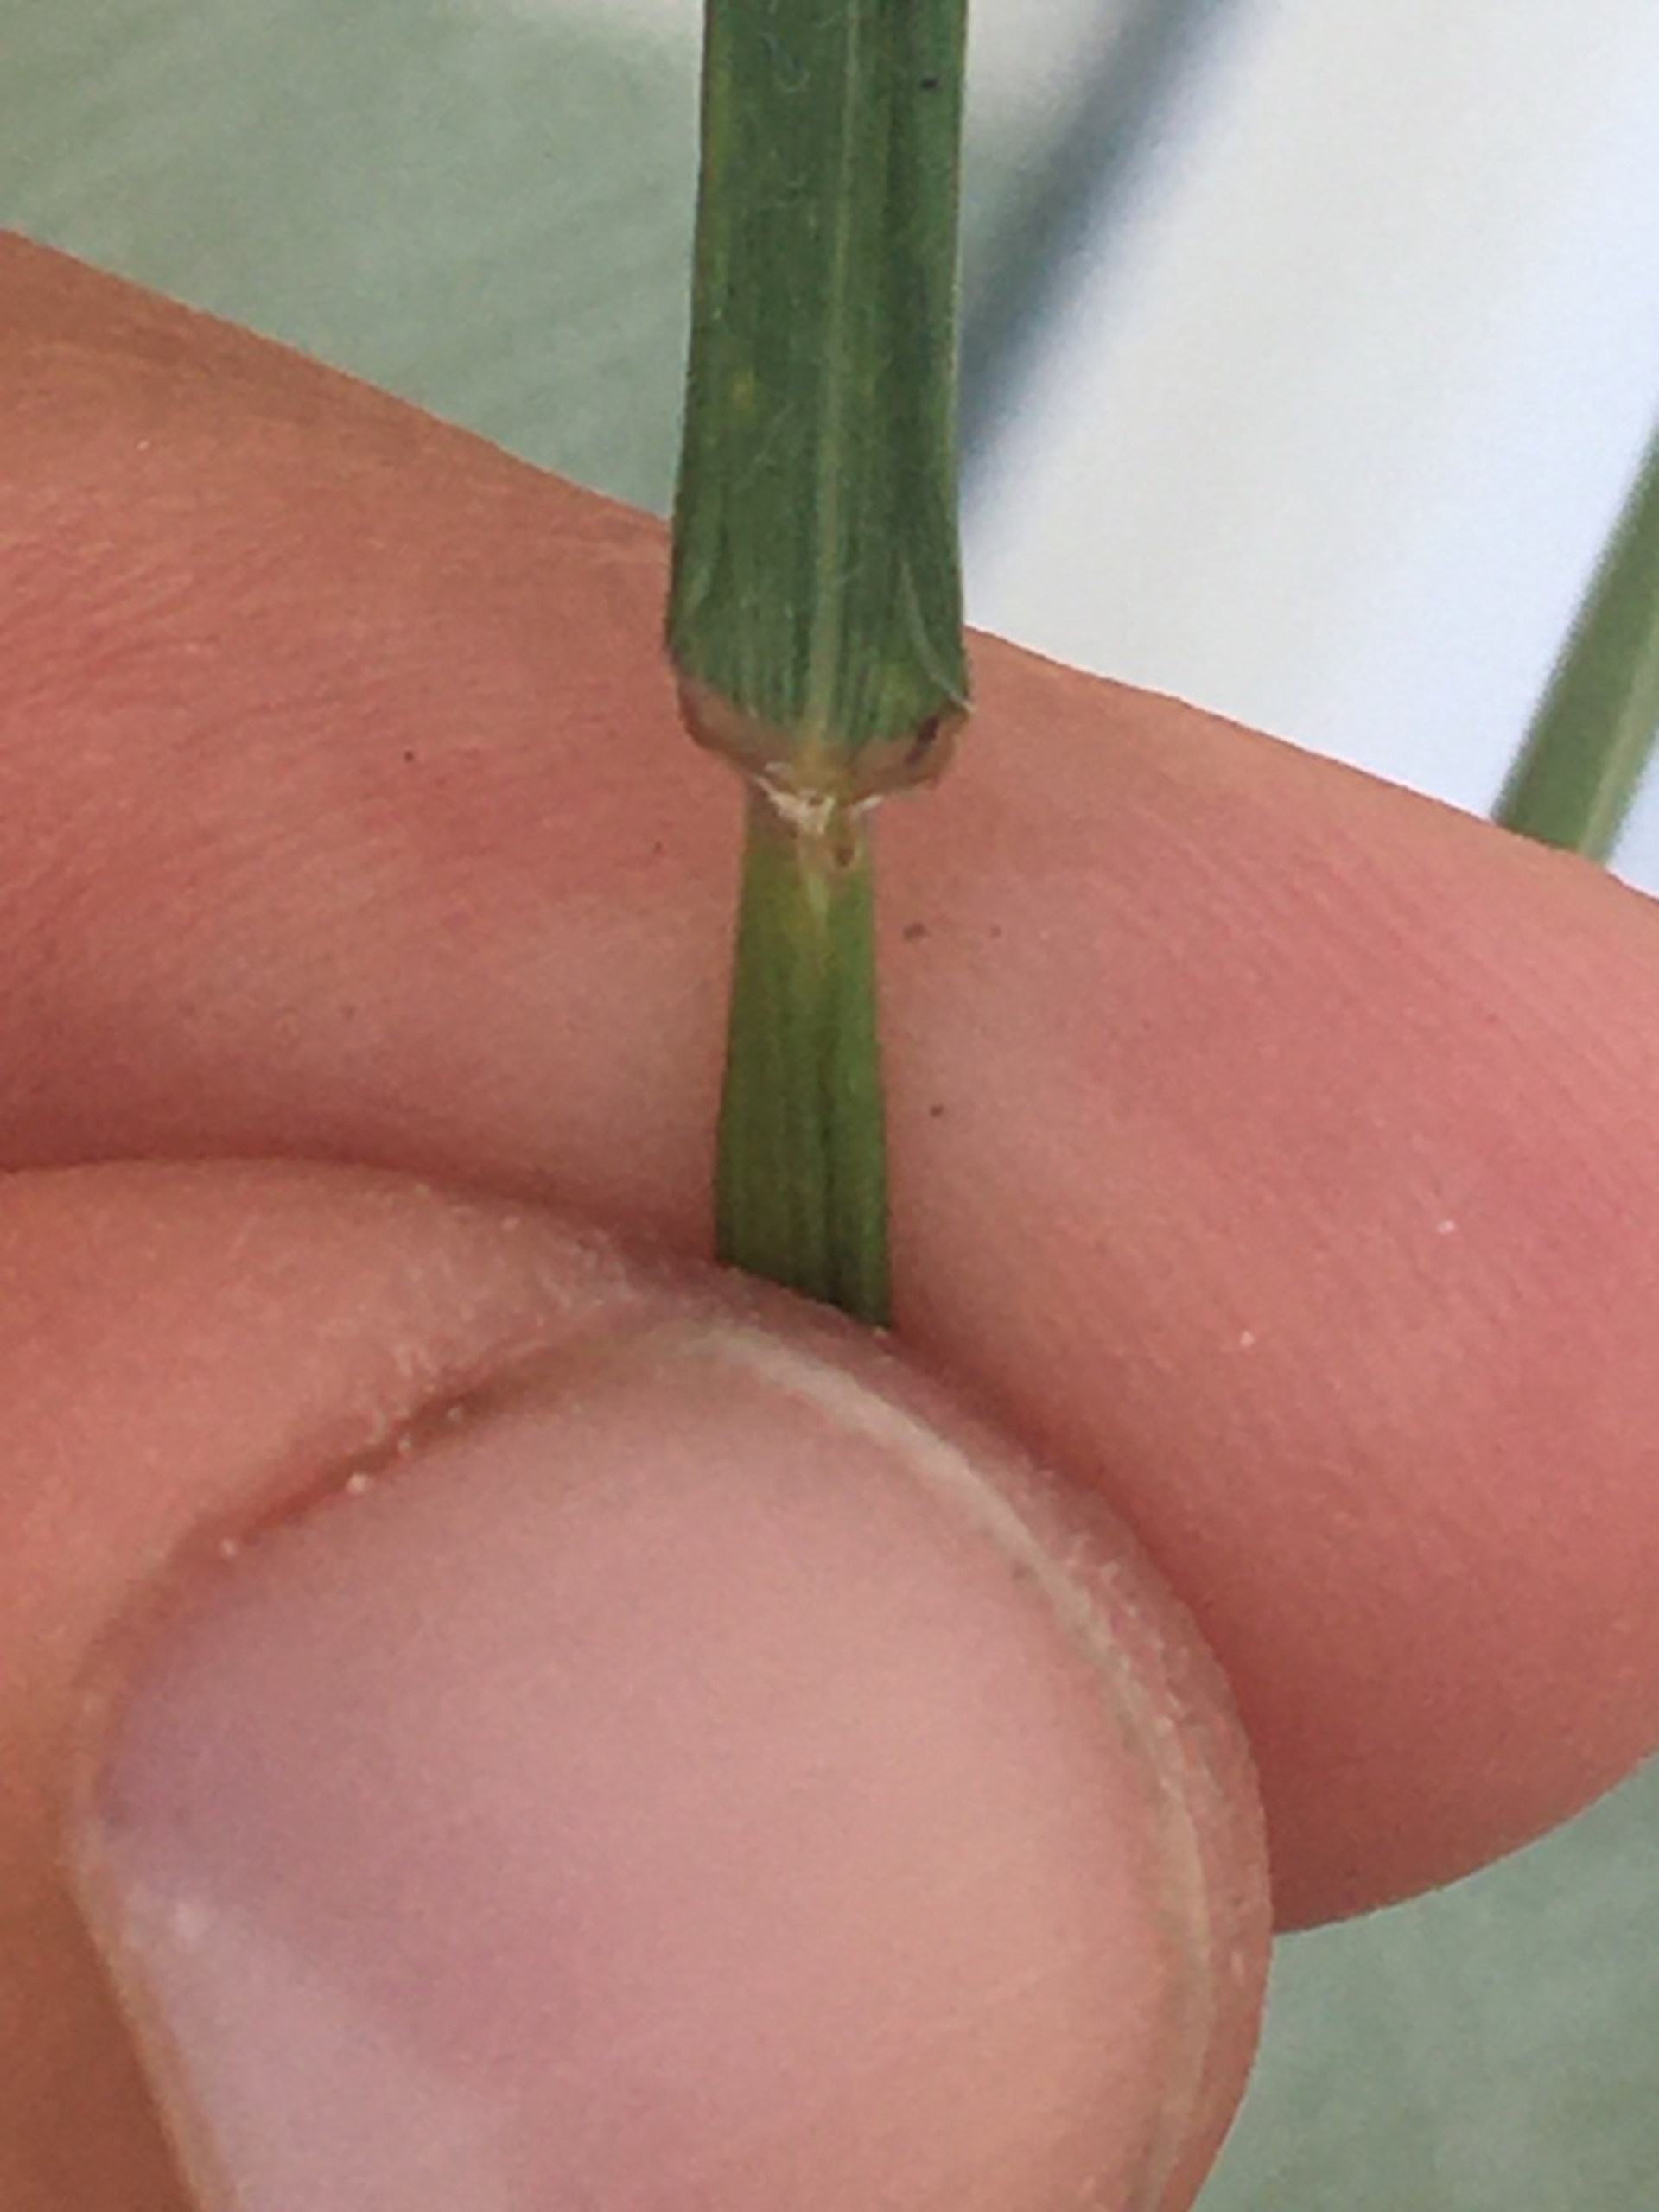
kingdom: Plantae
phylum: Tracheophyta
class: Liliopsida
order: Poales
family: Poaceae
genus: Elymus
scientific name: Elymus repens
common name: Almindelig kvik
